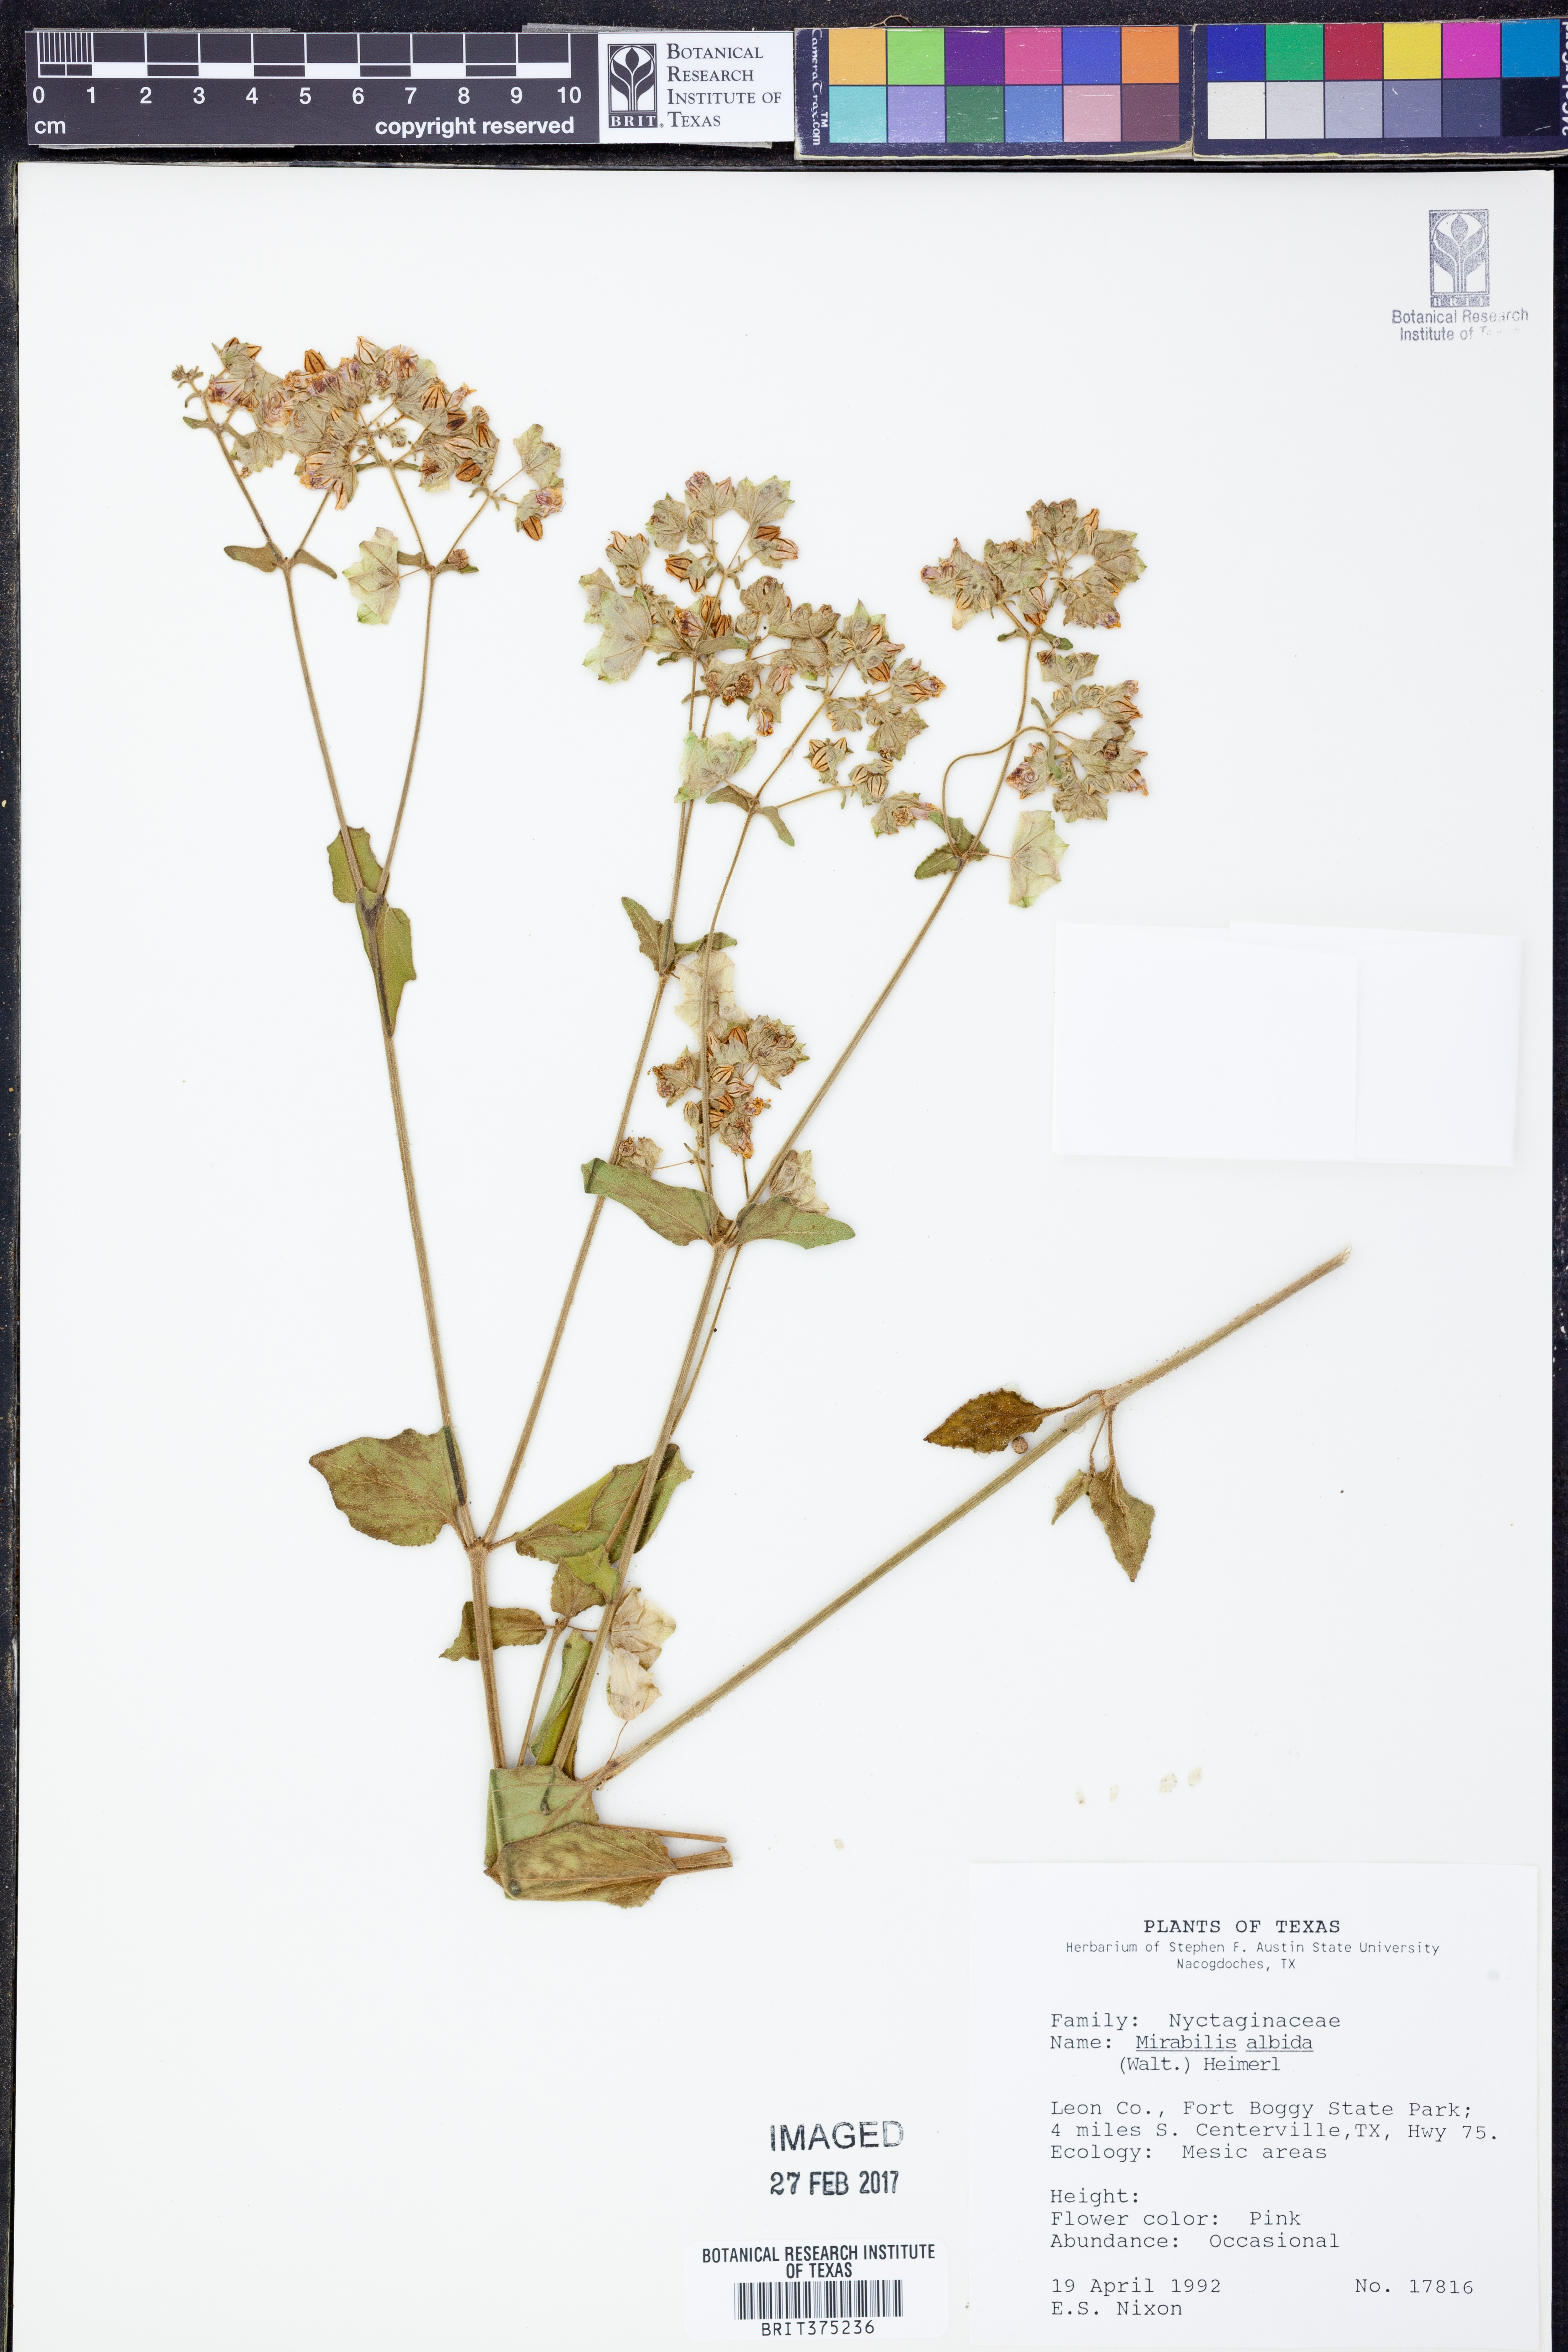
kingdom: Plantae
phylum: Tracheophyta
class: Magnoliopsida
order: Caryophyllales
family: Nyctaginaceae
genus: Mirabilis
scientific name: Mirabilis albida
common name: Hairy four-o'clock
